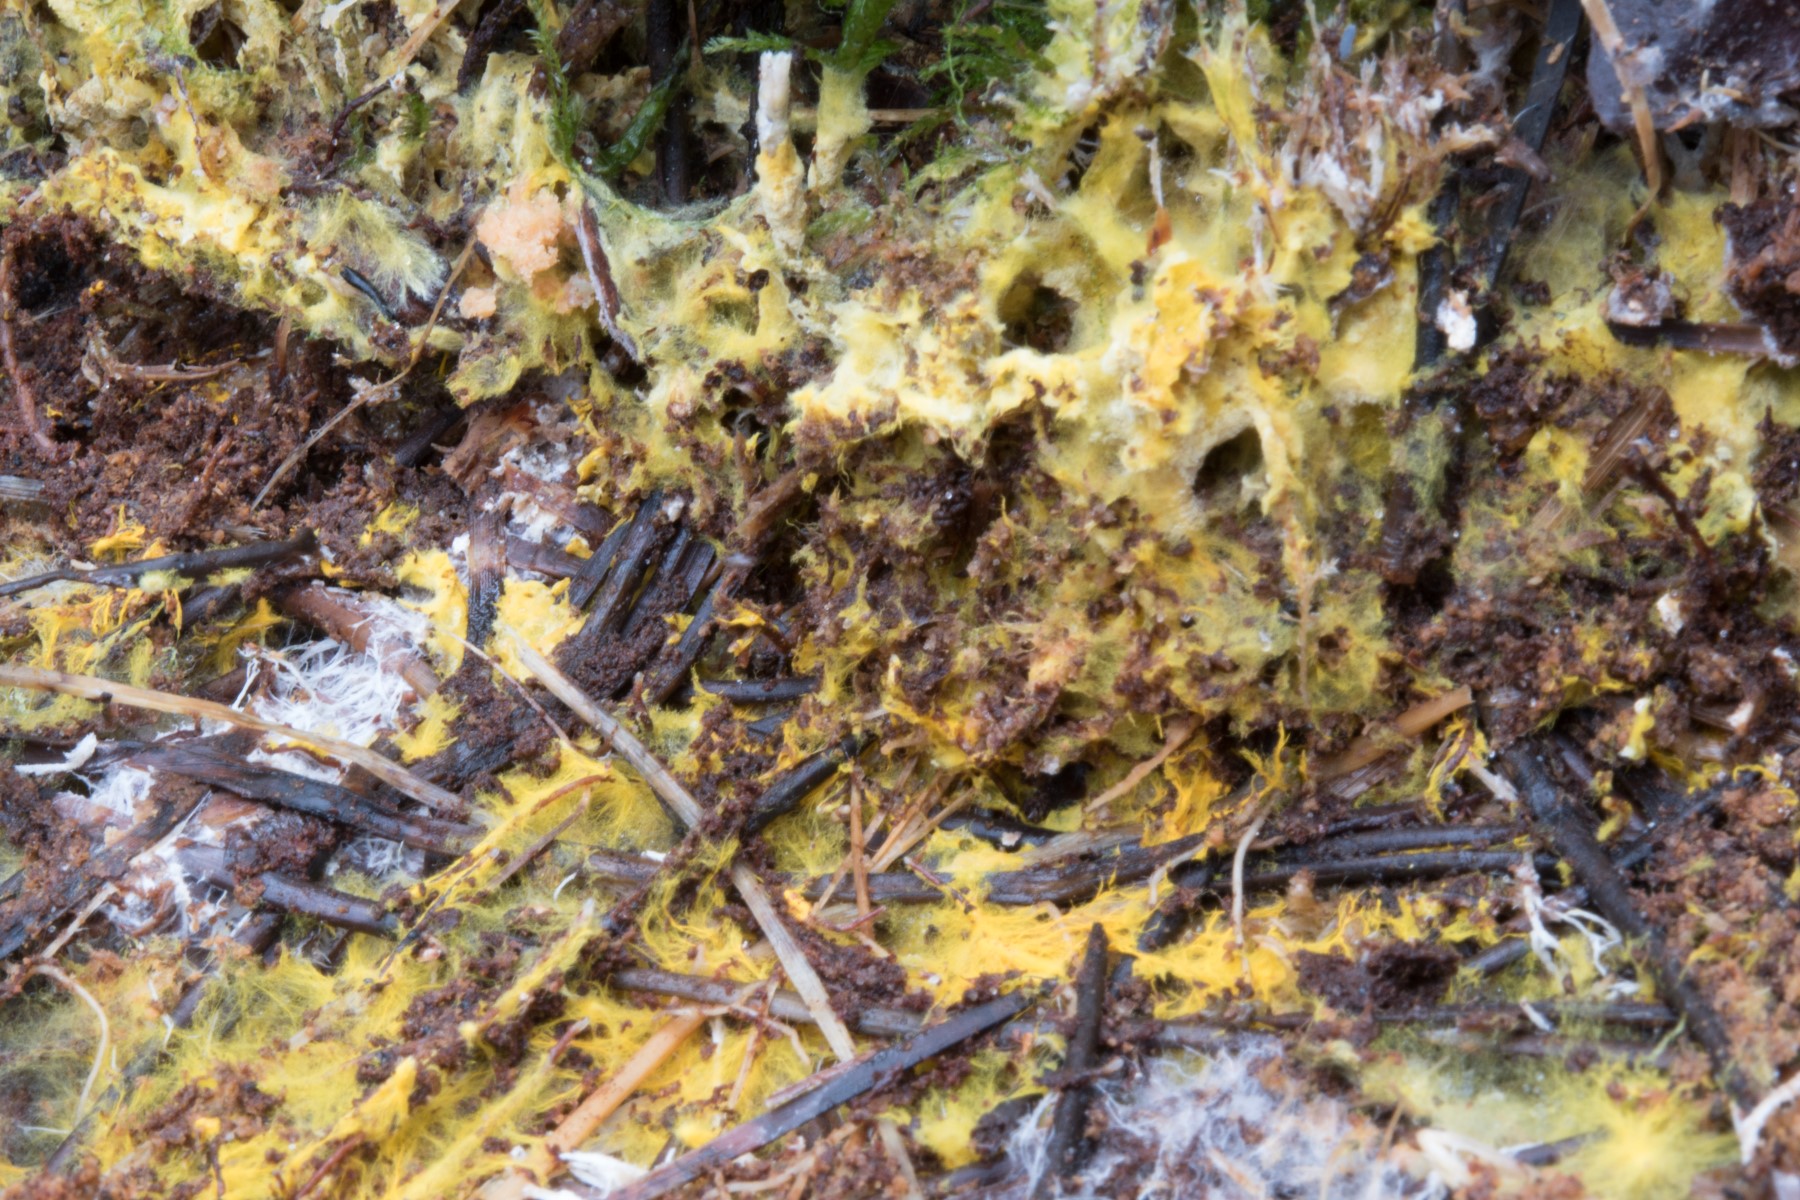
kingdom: Fungi
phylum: Basidiomycota
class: Agaricomycetes
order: Atheliales
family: Atheliaceae
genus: Piloderma
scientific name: Piloderma bicolor
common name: gul førnehinde
